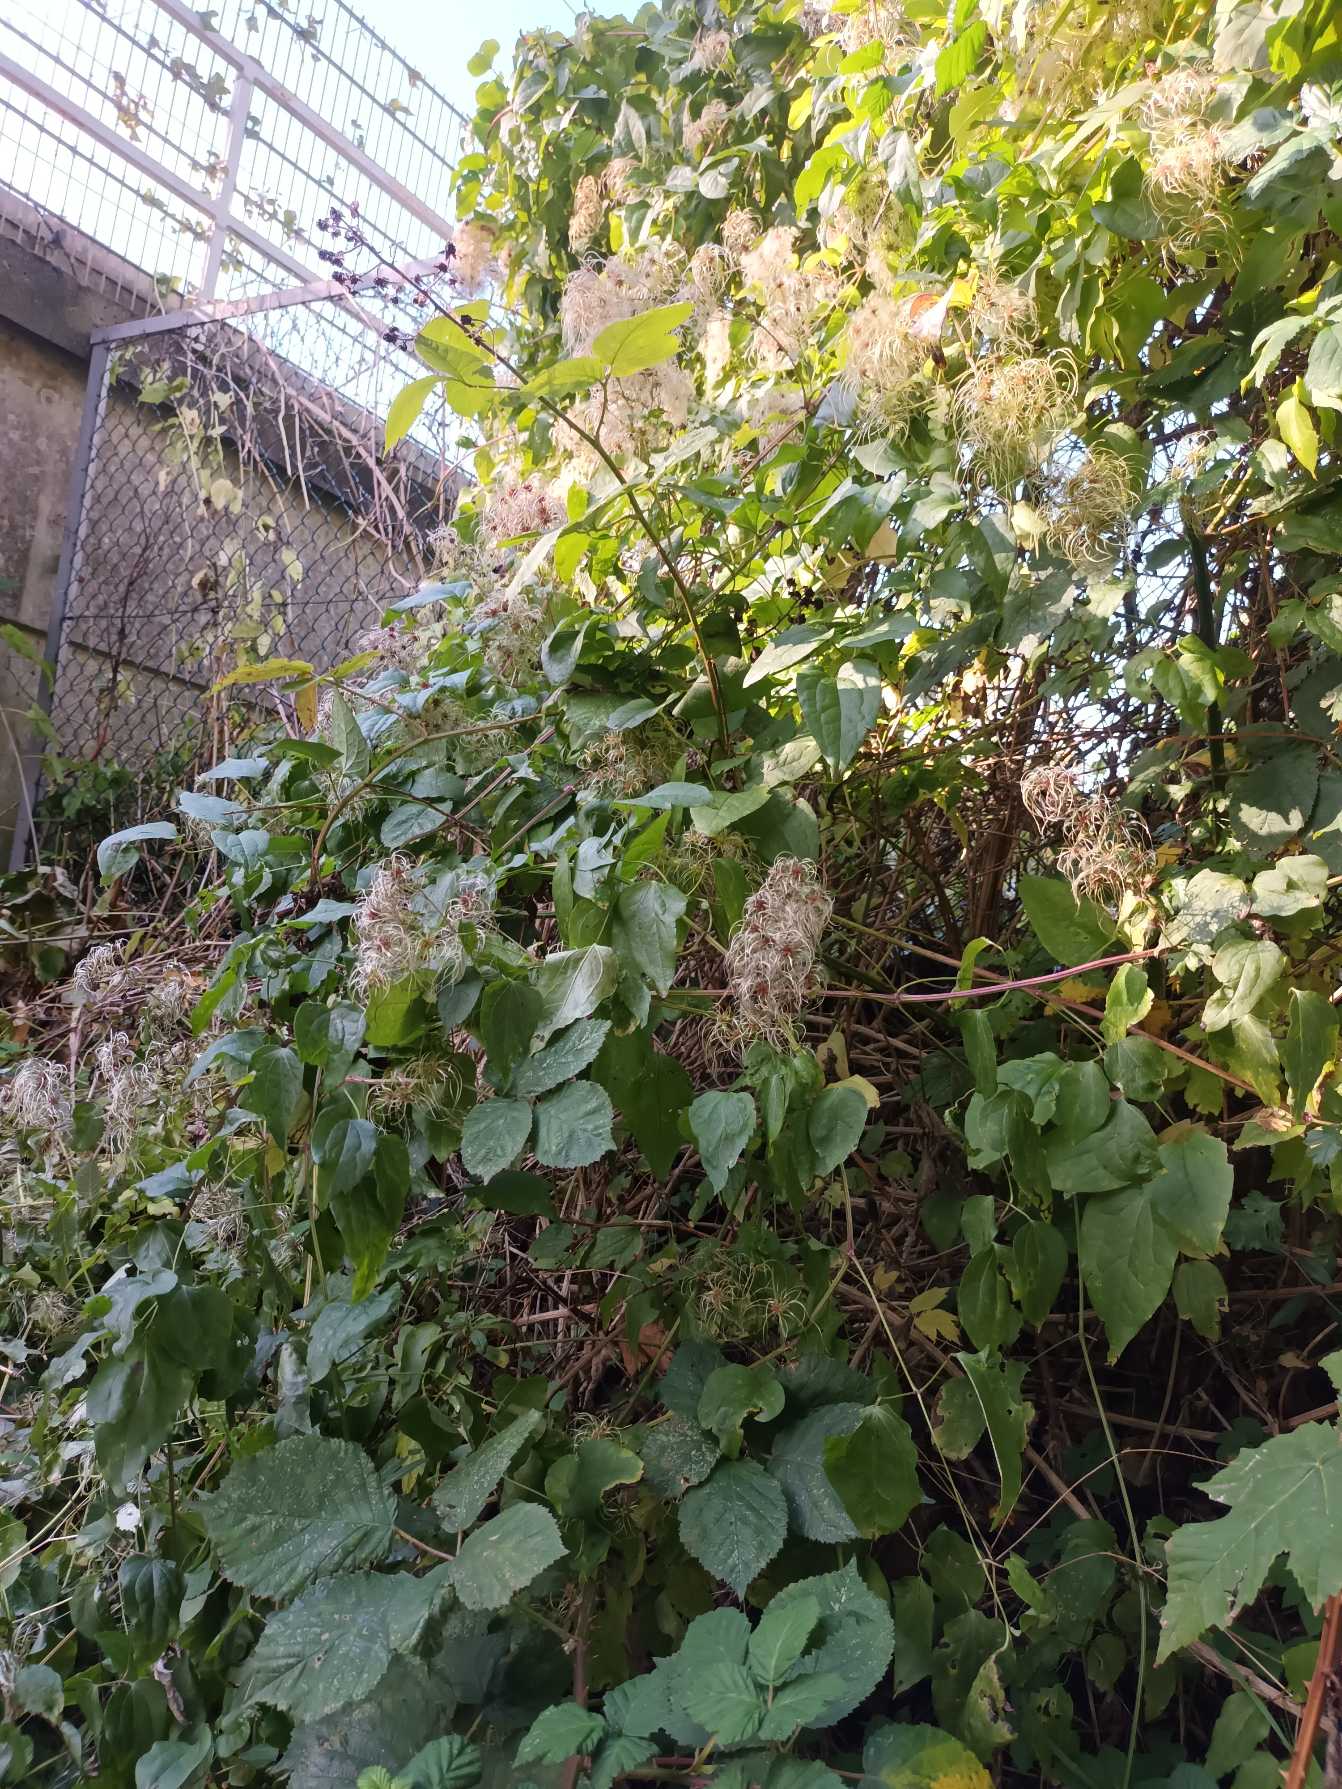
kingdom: Plantae
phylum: Tracheophyta
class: Magnoliopsida
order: Ranunculales
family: Ranunculaceae
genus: Clematis
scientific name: Clematis vitalba
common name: Skovranke
